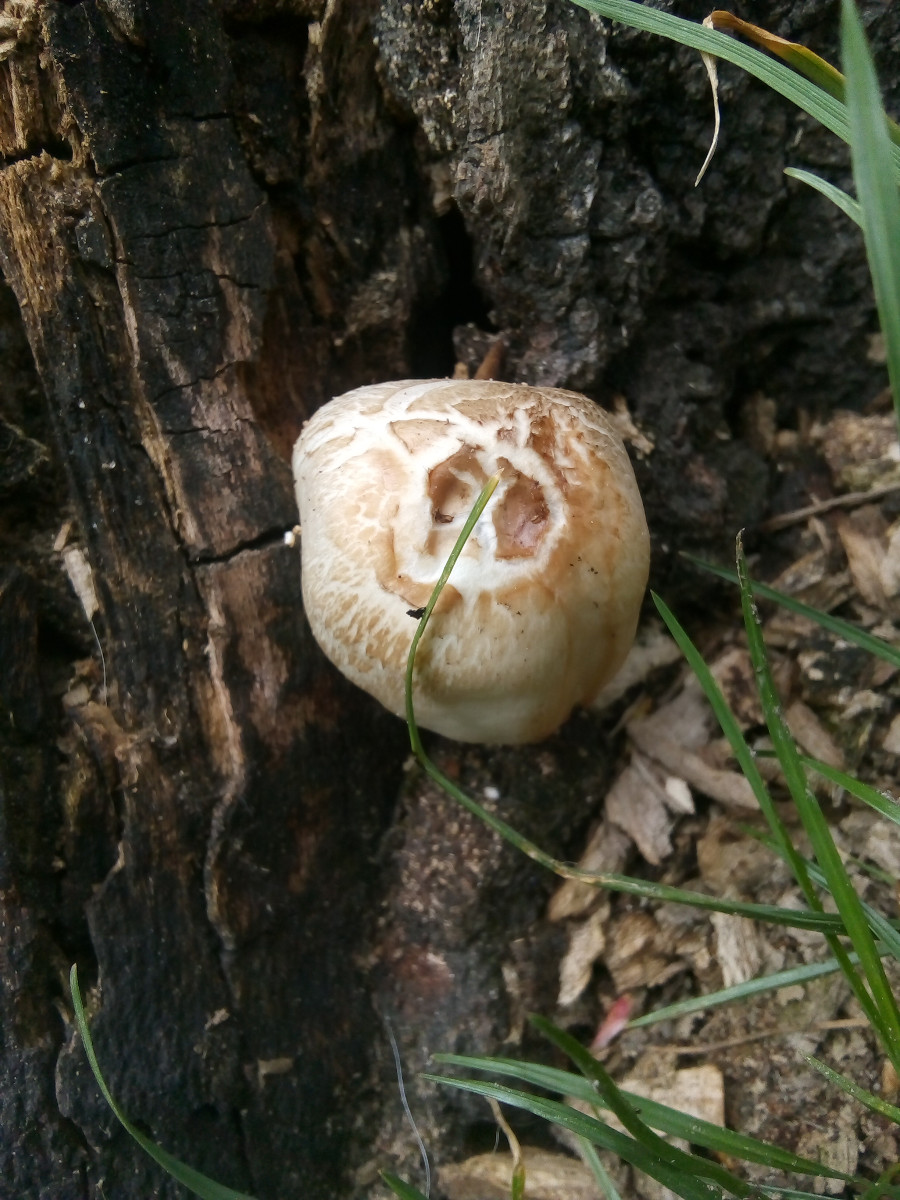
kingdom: Fungi
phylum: Basidiomycota
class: Agaricomycetes
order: Agaricales
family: Pluteaceae
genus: Pluteus
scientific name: Pluteus petasatus
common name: savsmulds-skærmhat
